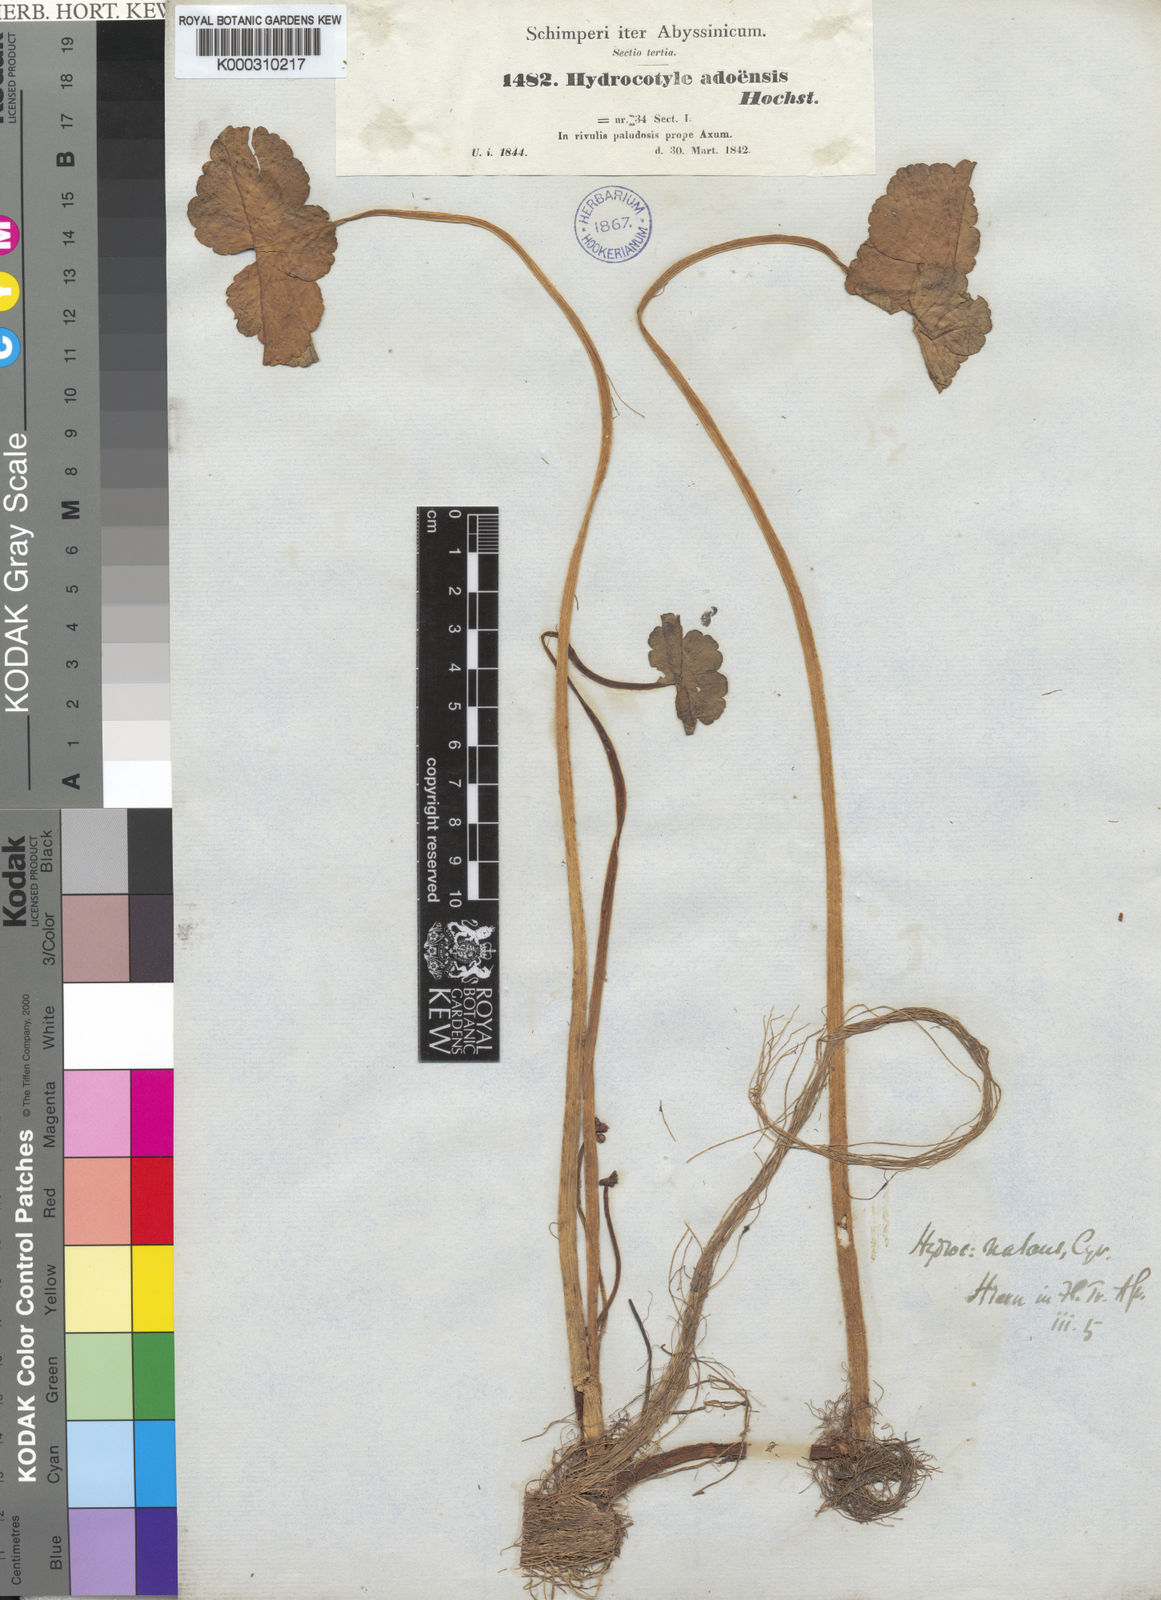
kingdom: Plantae
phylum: Tracheophyta
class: Magnoliopsida
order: Apiales
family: Araliaceae
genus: Hydrocotyle
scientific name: Hydrocotyle ranunculoides
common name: Floating pennywort
